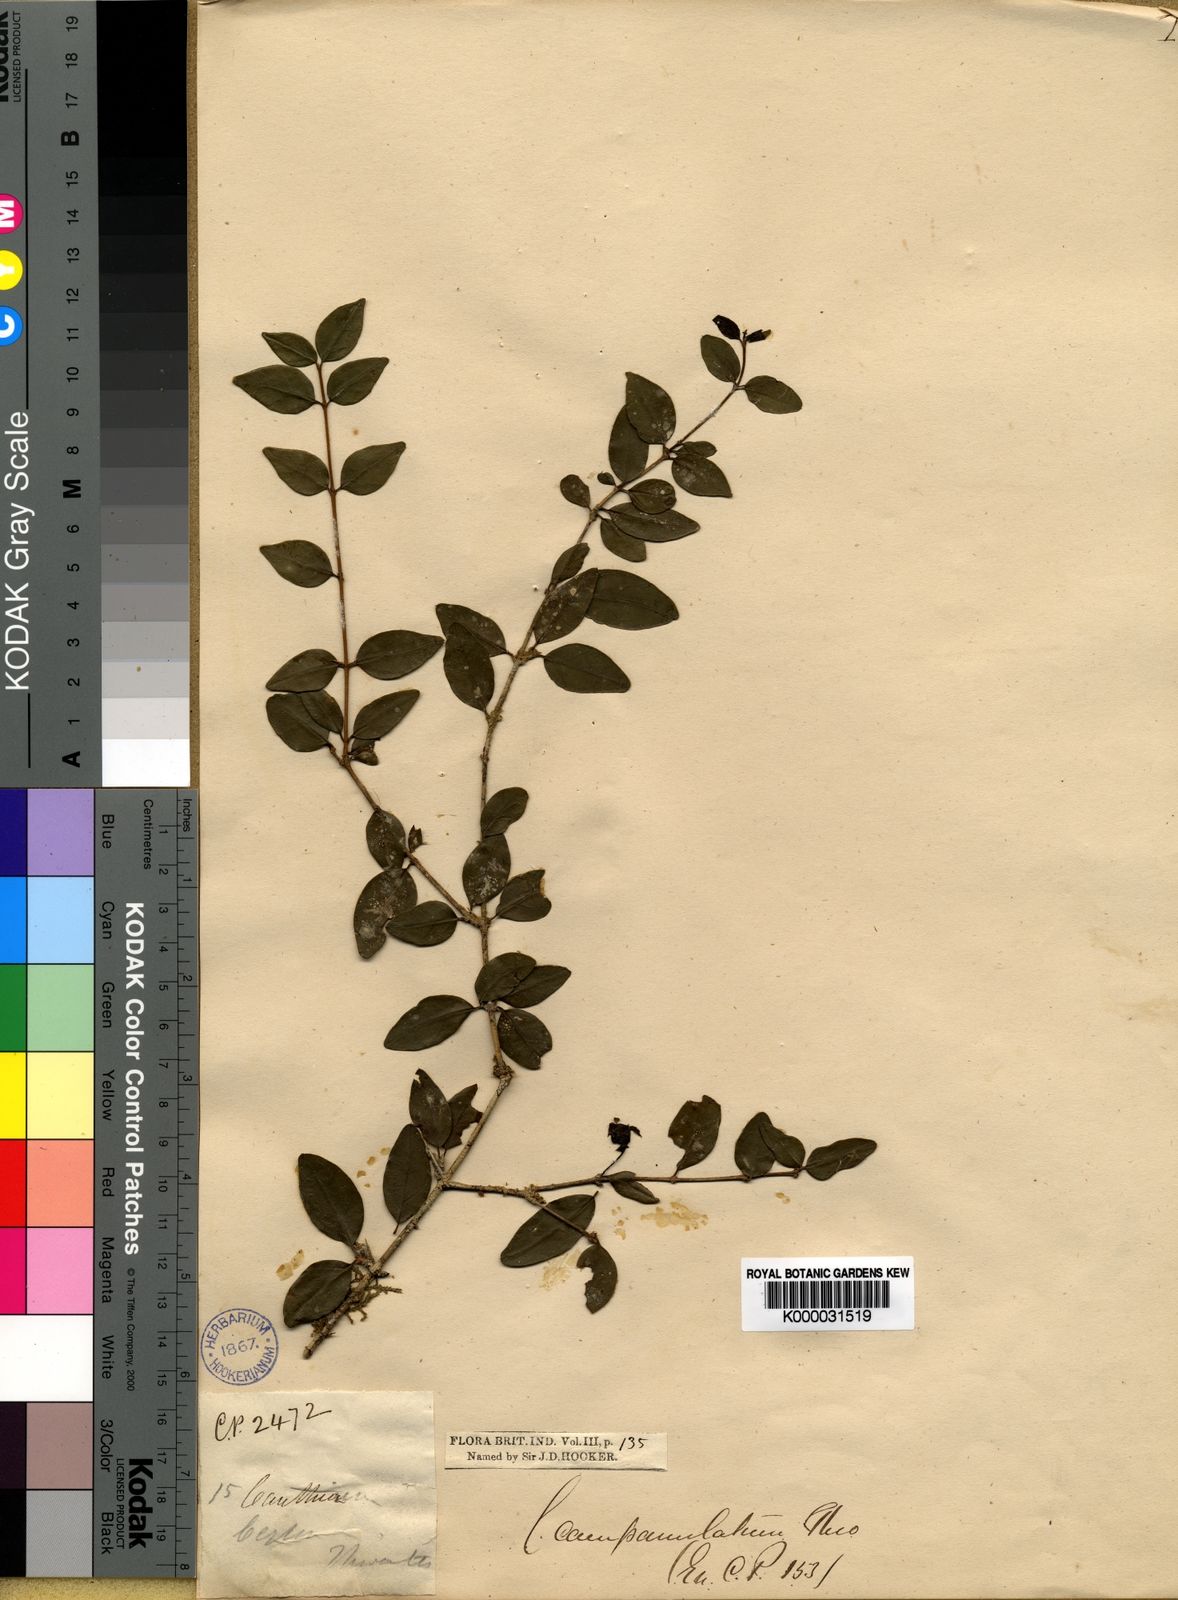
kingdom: Plantae
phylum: Tracheophyta
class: Magnoliopsida
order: Gentianales
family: Rubiaceae
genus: Canthium
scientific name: Canthium campanulatum
